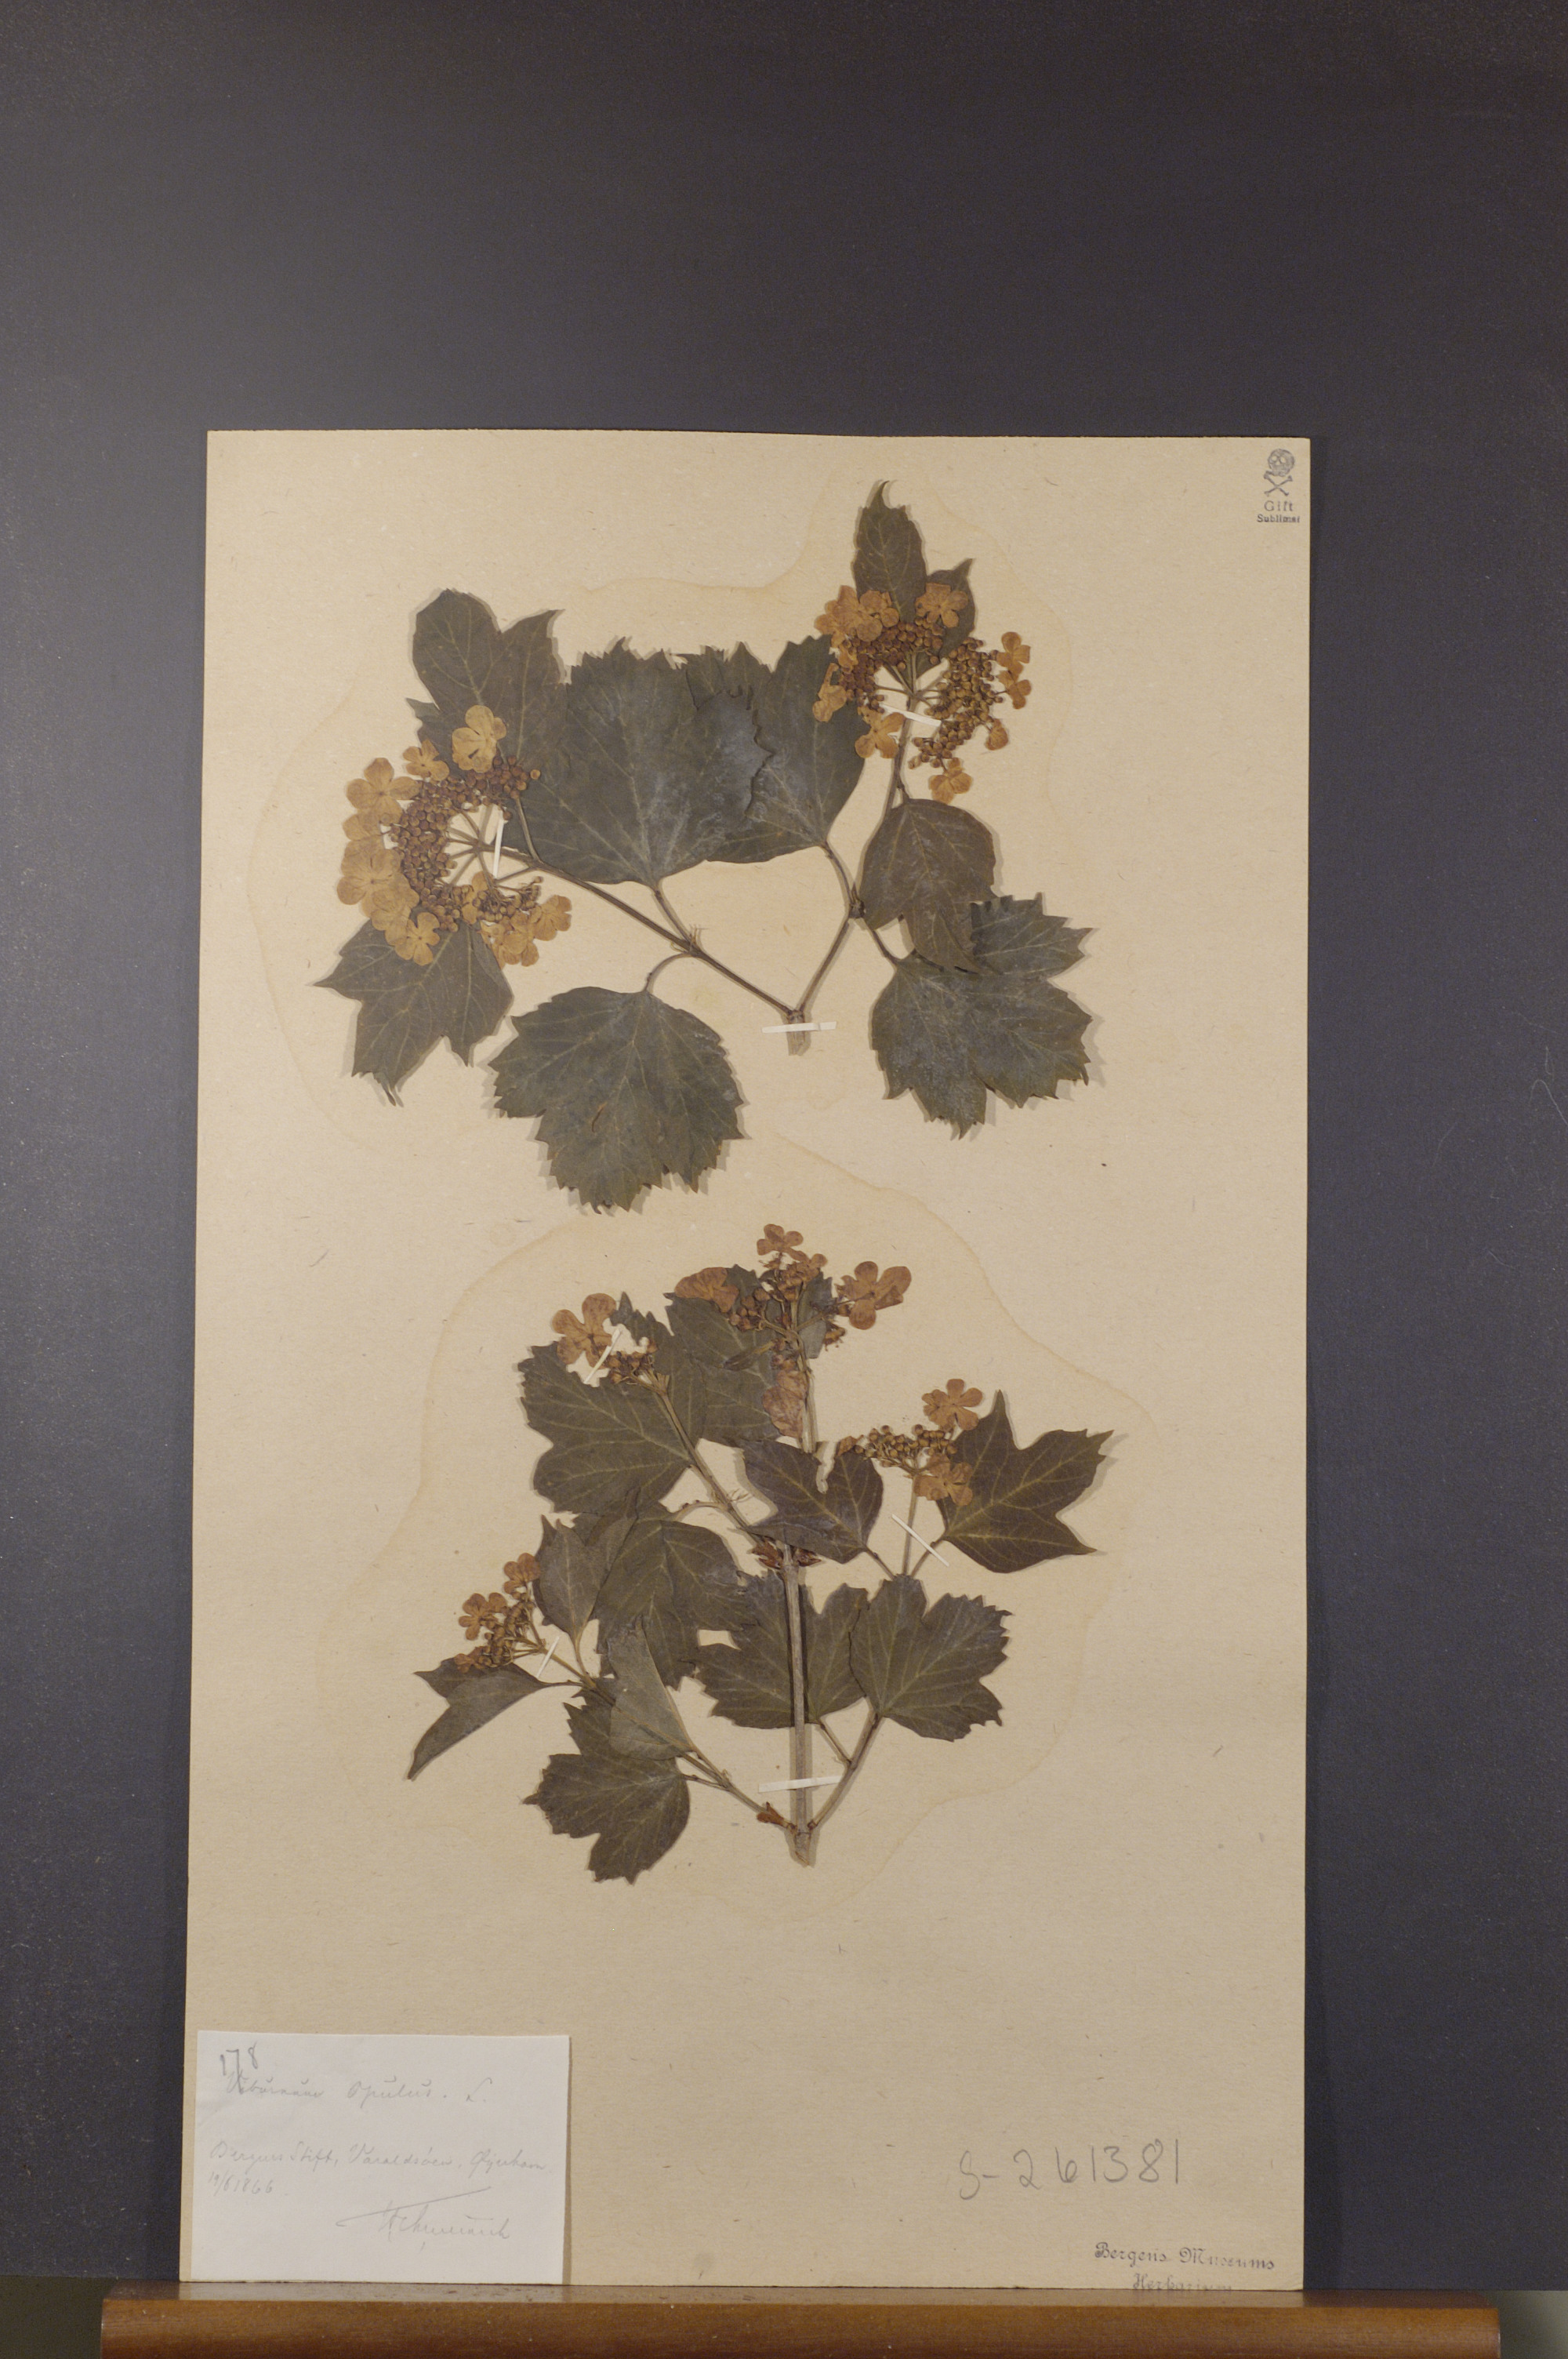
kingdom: Plantae
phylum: Tracheophyta
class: Magnoliopsida
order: Dipsacales
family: Viburnaceae
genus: Viburnum
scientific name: Viburnum opulus
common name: Guelder-rose
